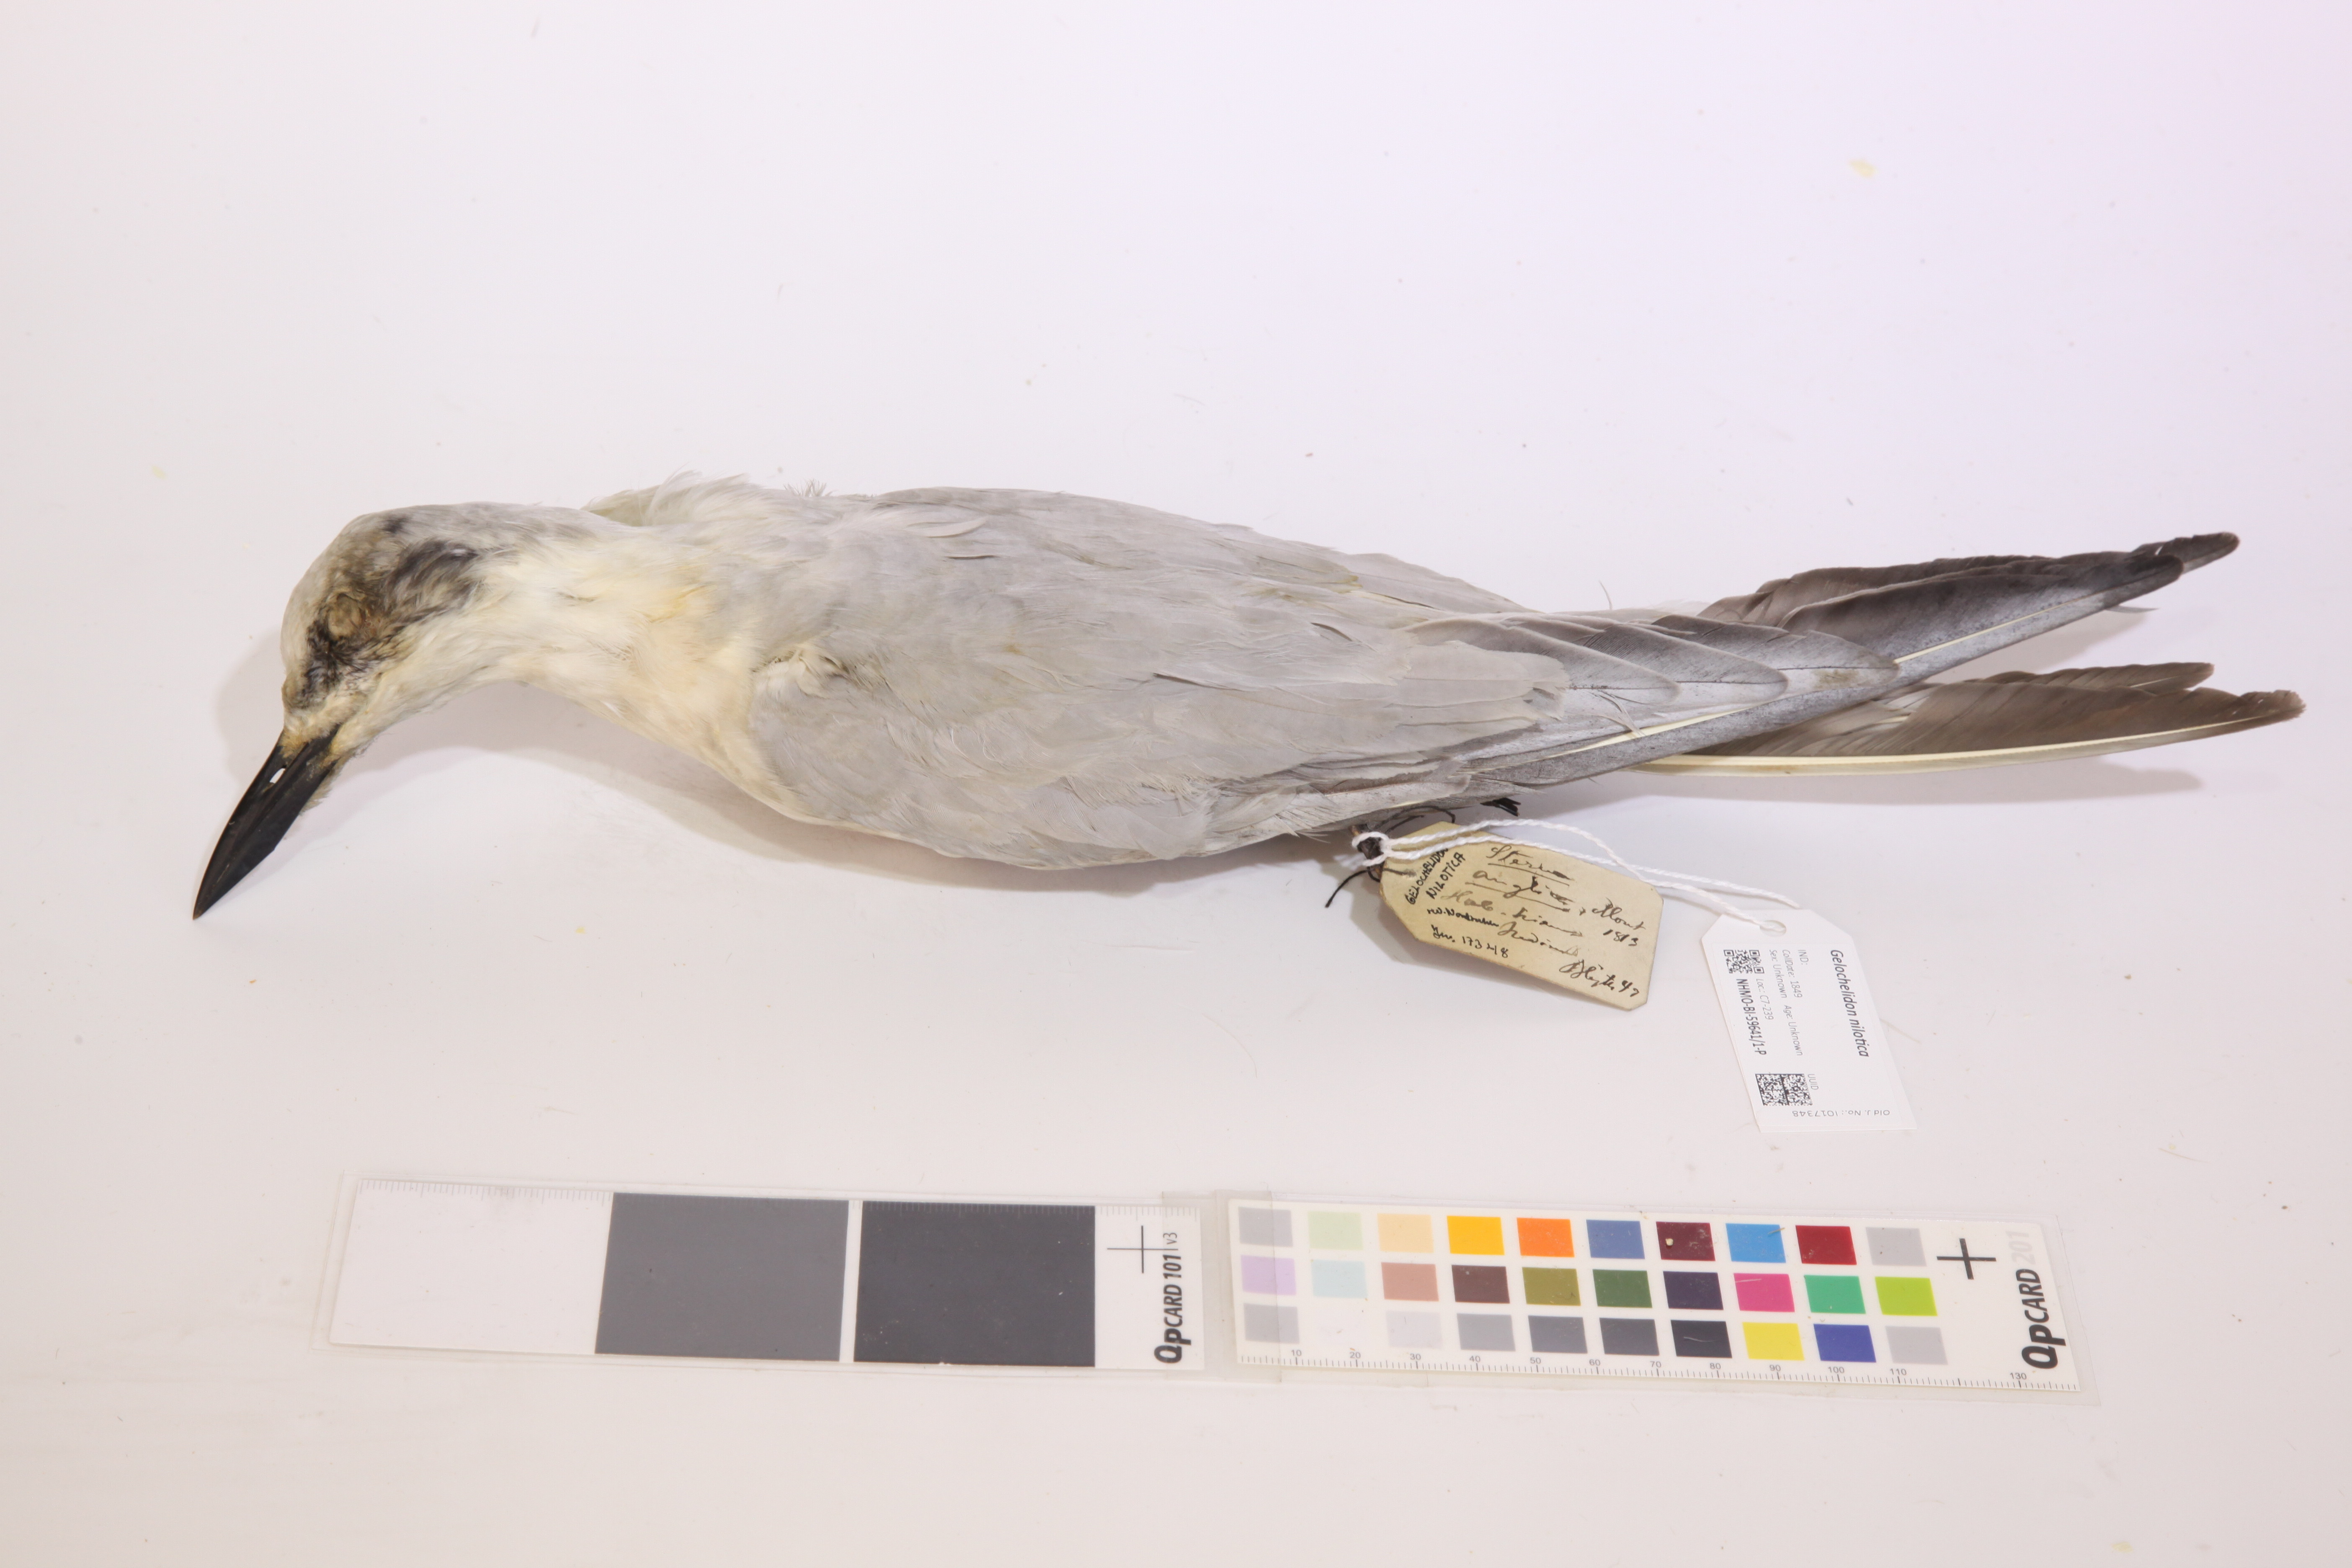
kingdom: Animalia
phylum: Chordata
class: Aves
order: Charadriiformes
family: Laridae
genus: Gelochelidon
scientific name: Gelochelidon nilotica
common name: Gull-billed tern
